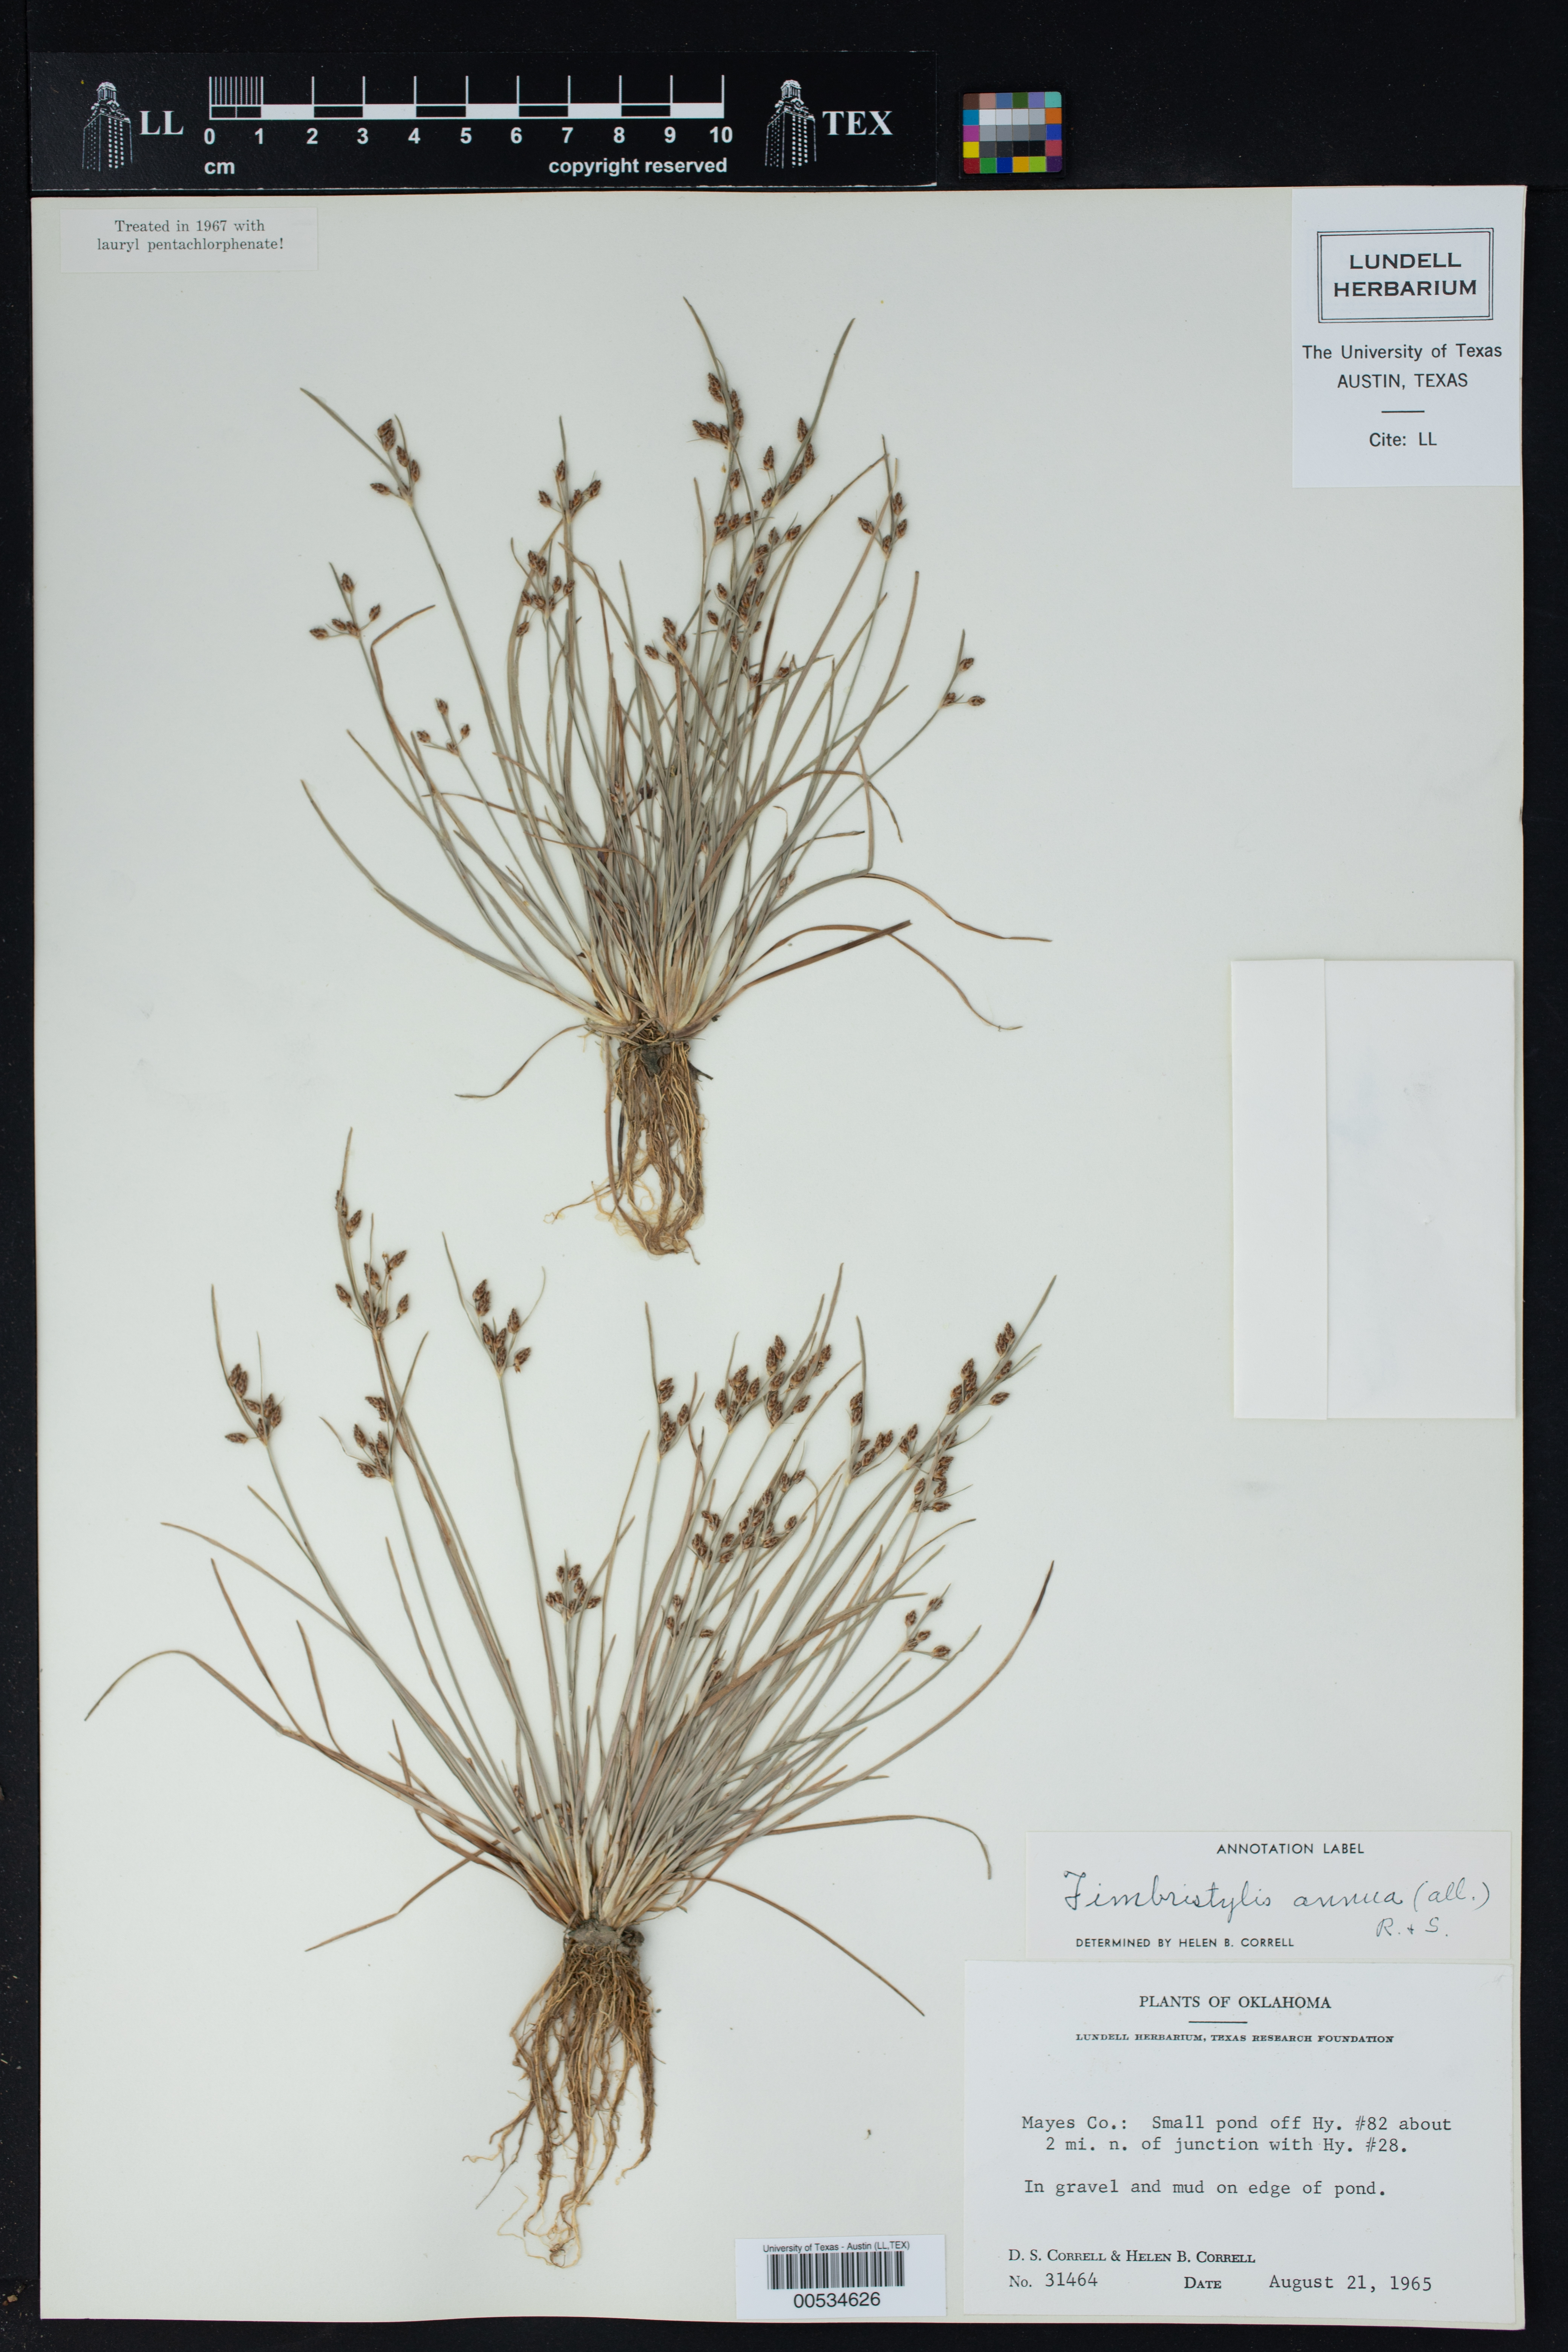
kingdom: Plantae
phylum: Tracheophyta
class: Liliopsida
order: Poales
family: Cyperaceae
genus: Fimbristylis
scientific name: Fimbristylis annua
